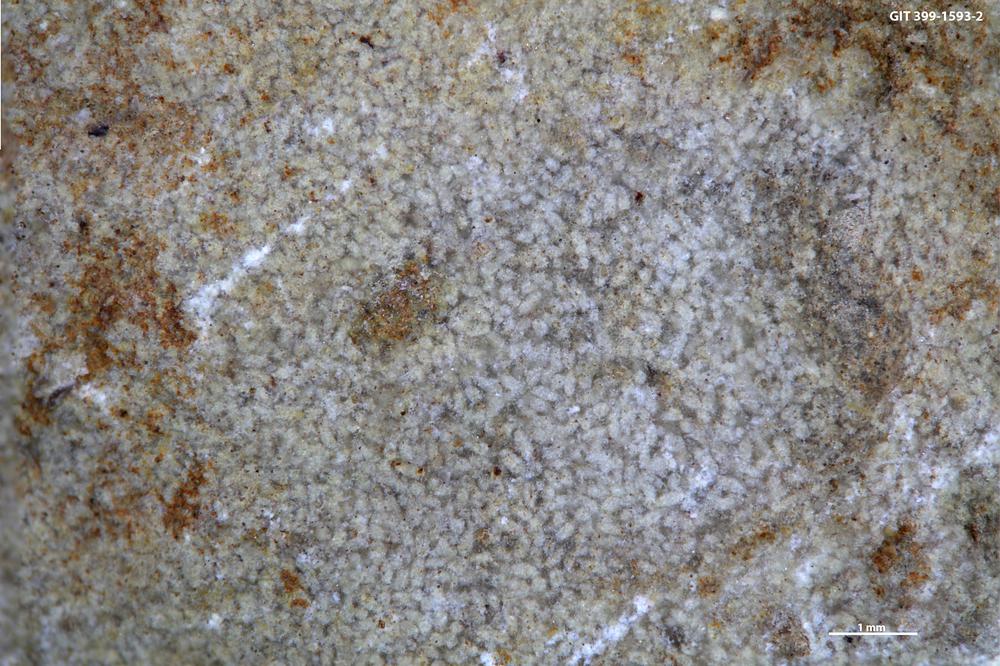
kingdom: Animalia
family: Coprulidae
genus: Coprulus
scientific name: Coprulus
